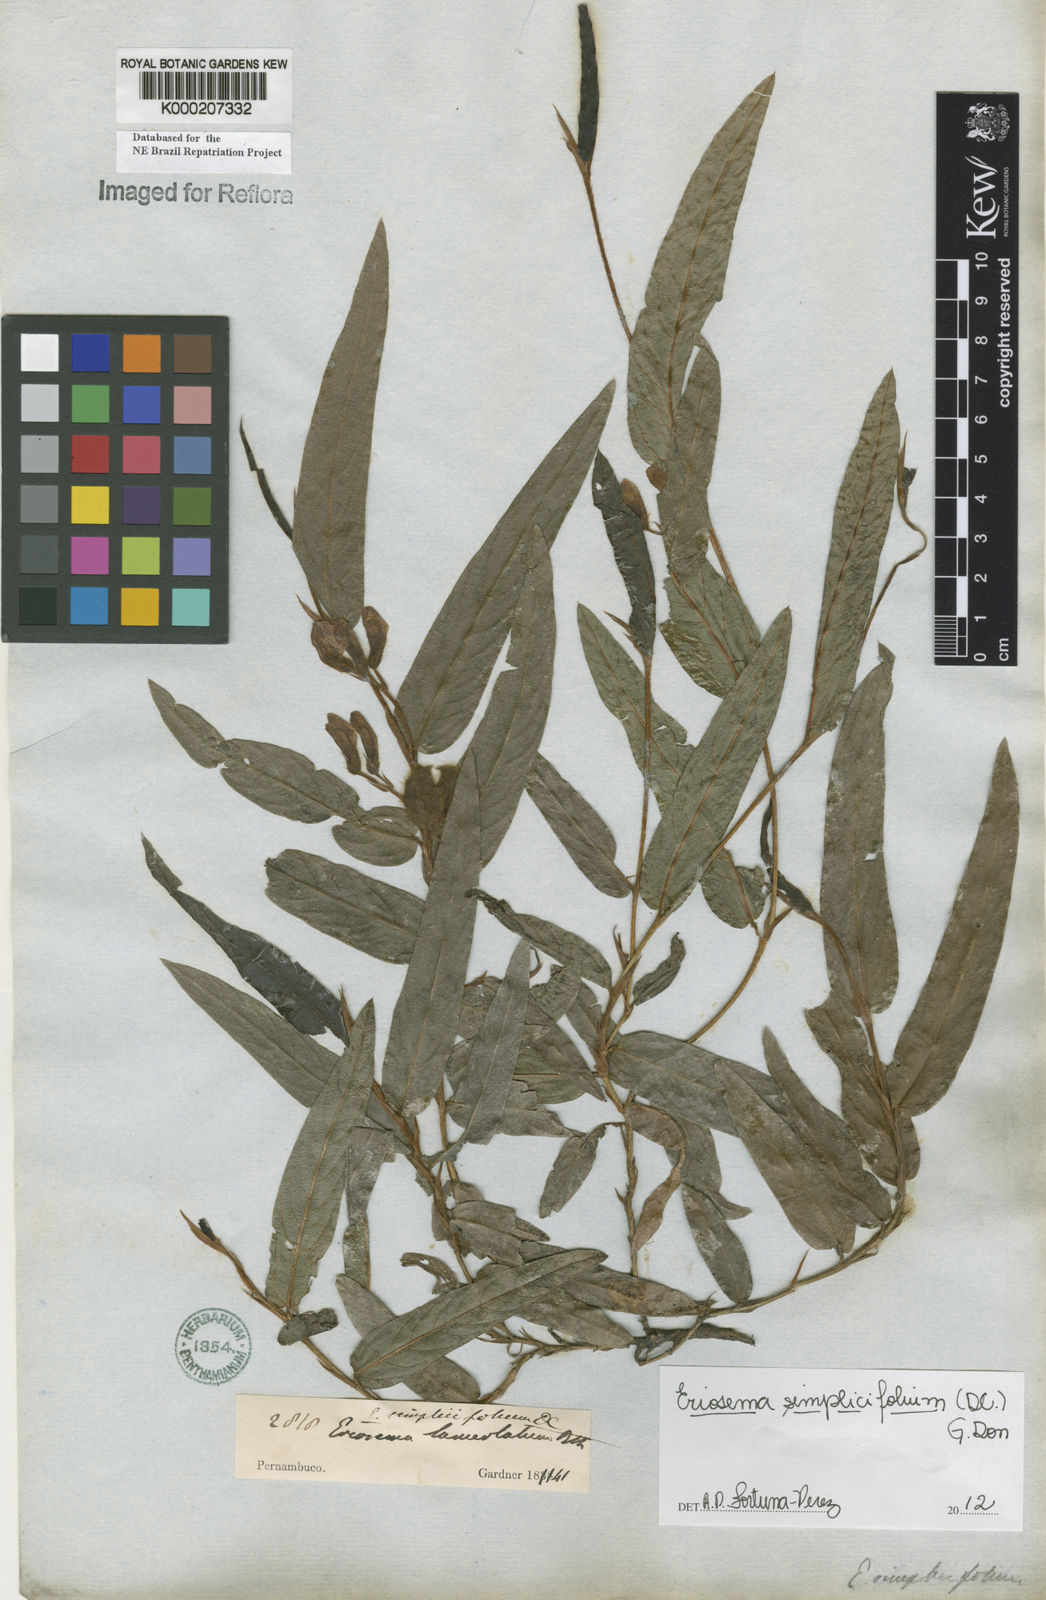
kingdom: Plantae
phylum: Tracheophyta
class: Magnoliopsida
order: Fabales
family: Fabaceae
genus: Eriosema
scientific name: Eriosema simplicifolium
